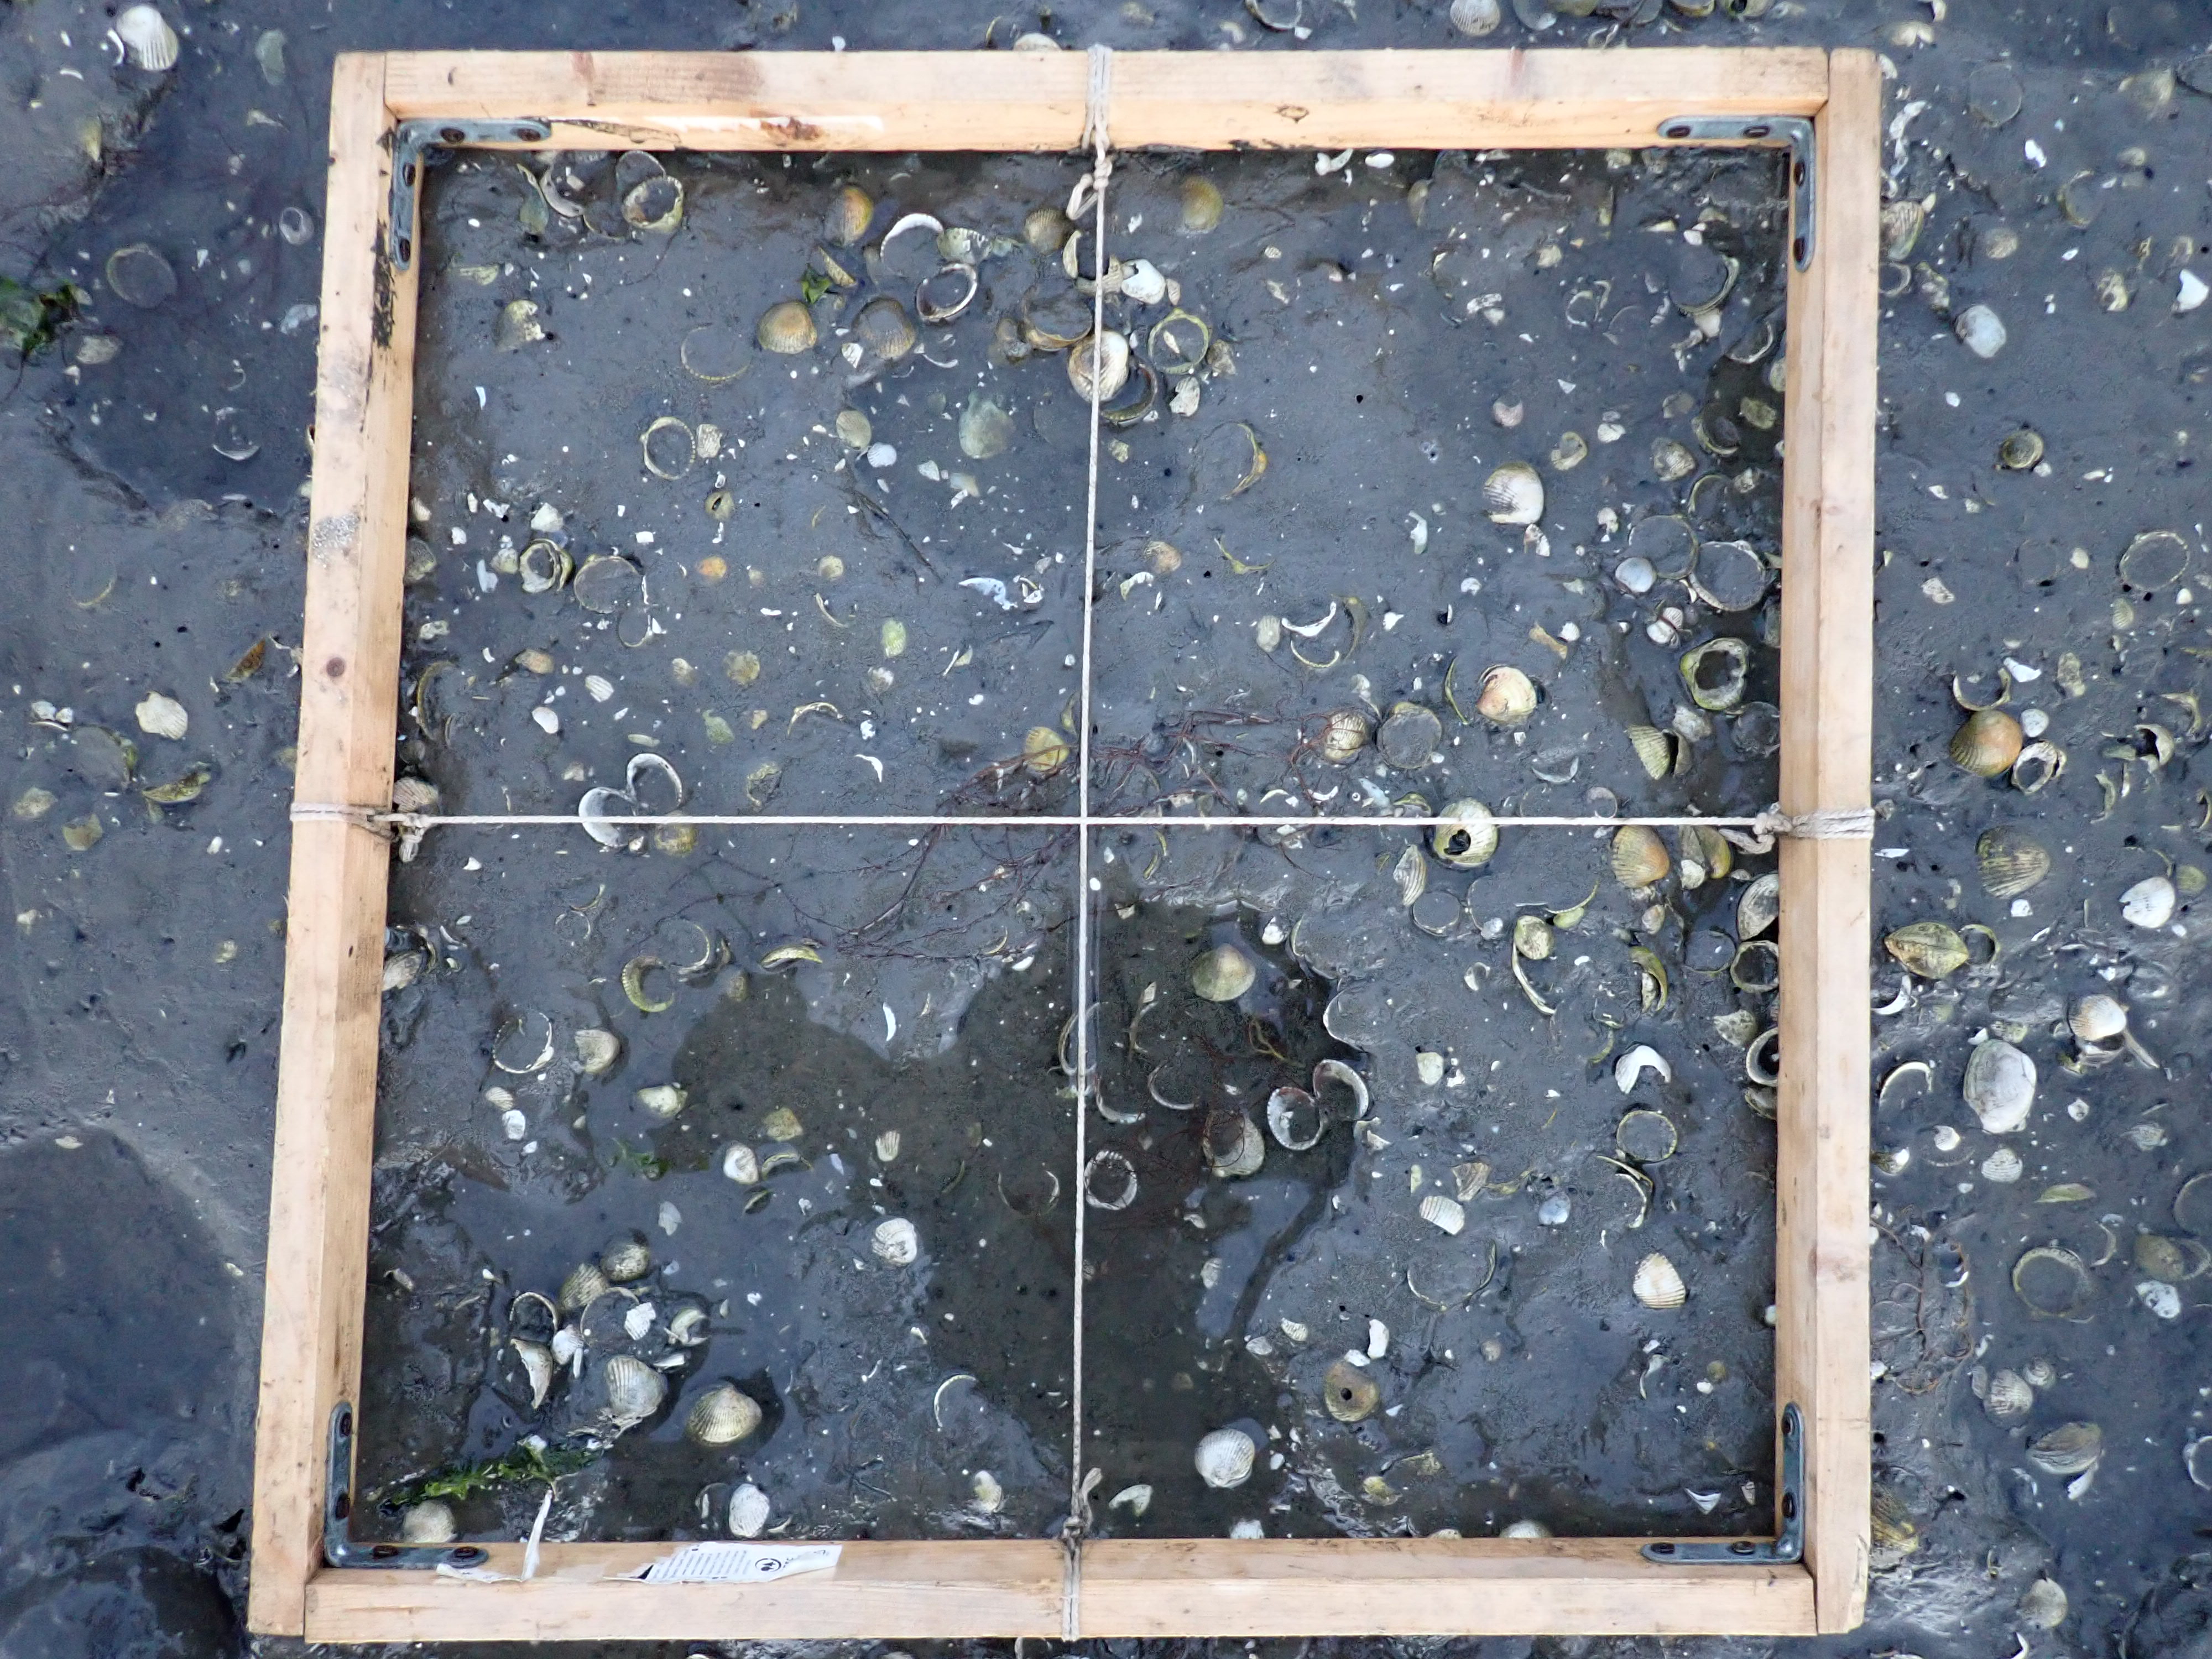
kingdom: Plantae
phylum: Rhodophyta
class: Florideophyceae
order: Gracilariales
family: Gracilariaceae
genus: Gracilaria
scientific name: Gracilaria vermiculophylla
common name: Algae
